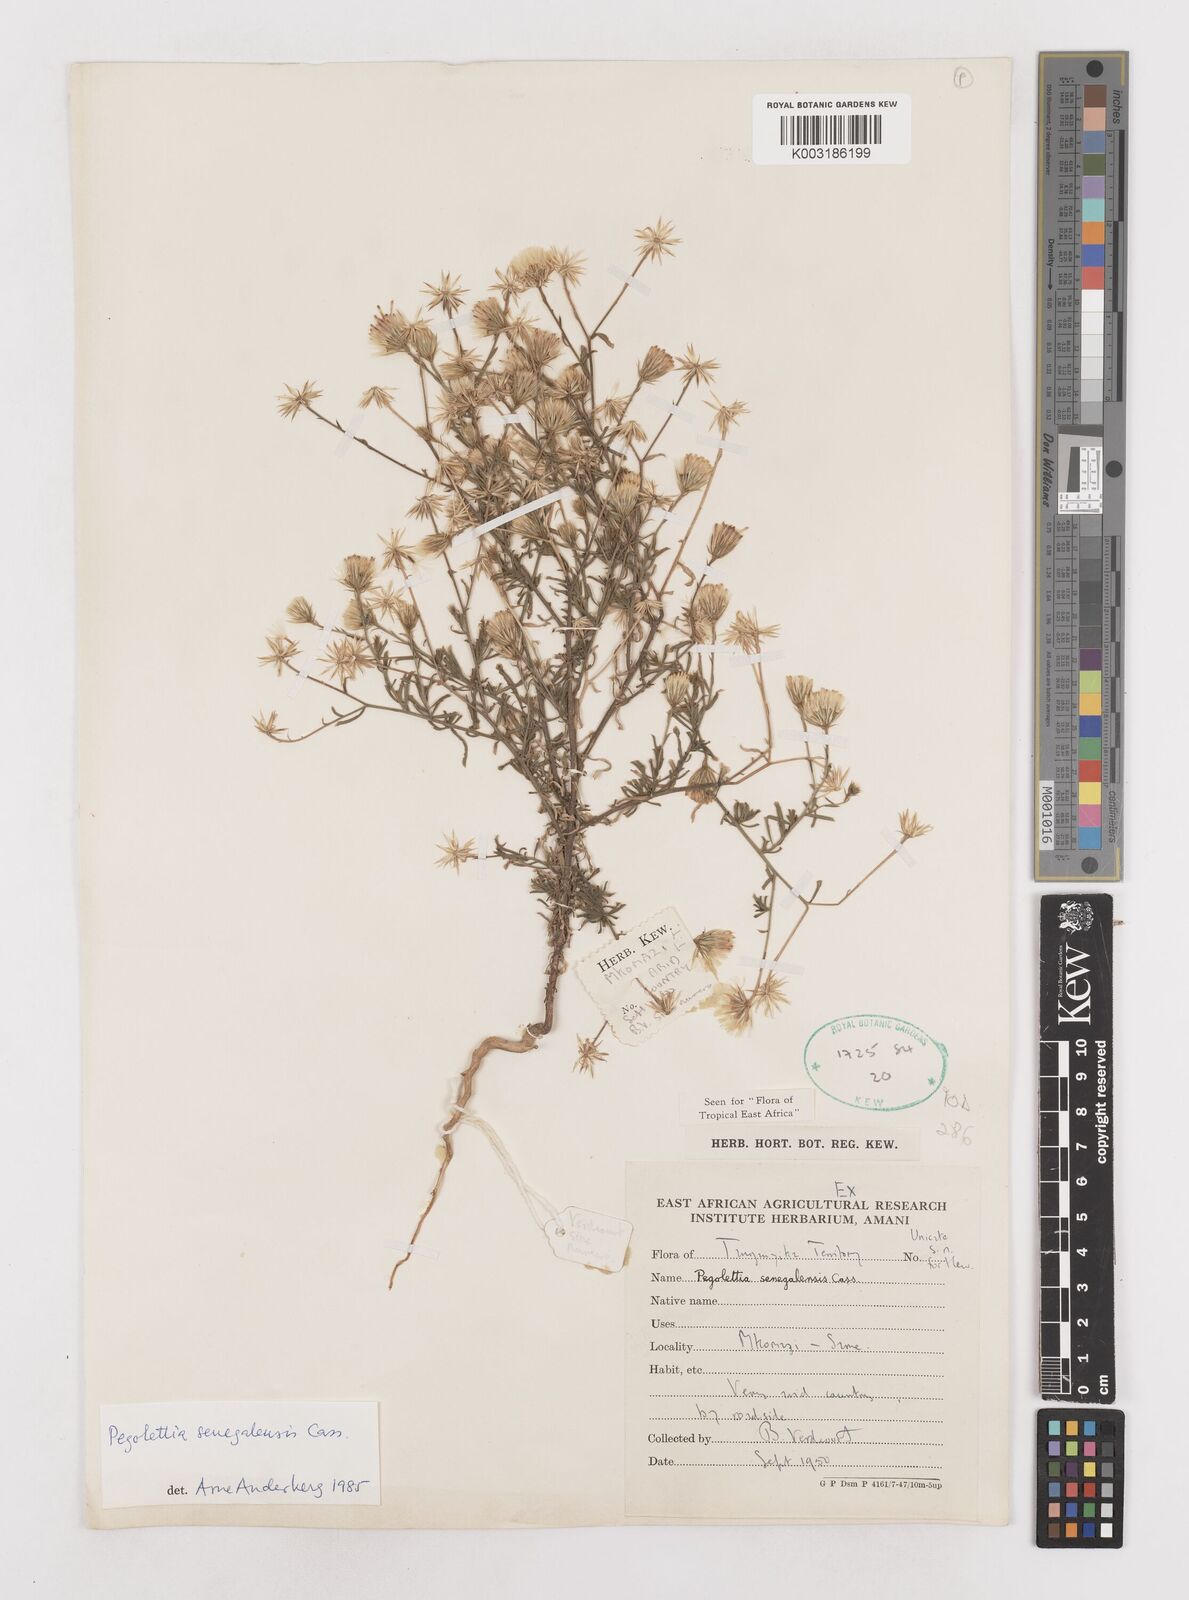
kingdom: Plantae
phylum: Tracheophyta
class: Magnoliopsida
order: Asterales
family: Asteraceae
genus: Pegolettia
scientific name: Pegolettia senegalensis
